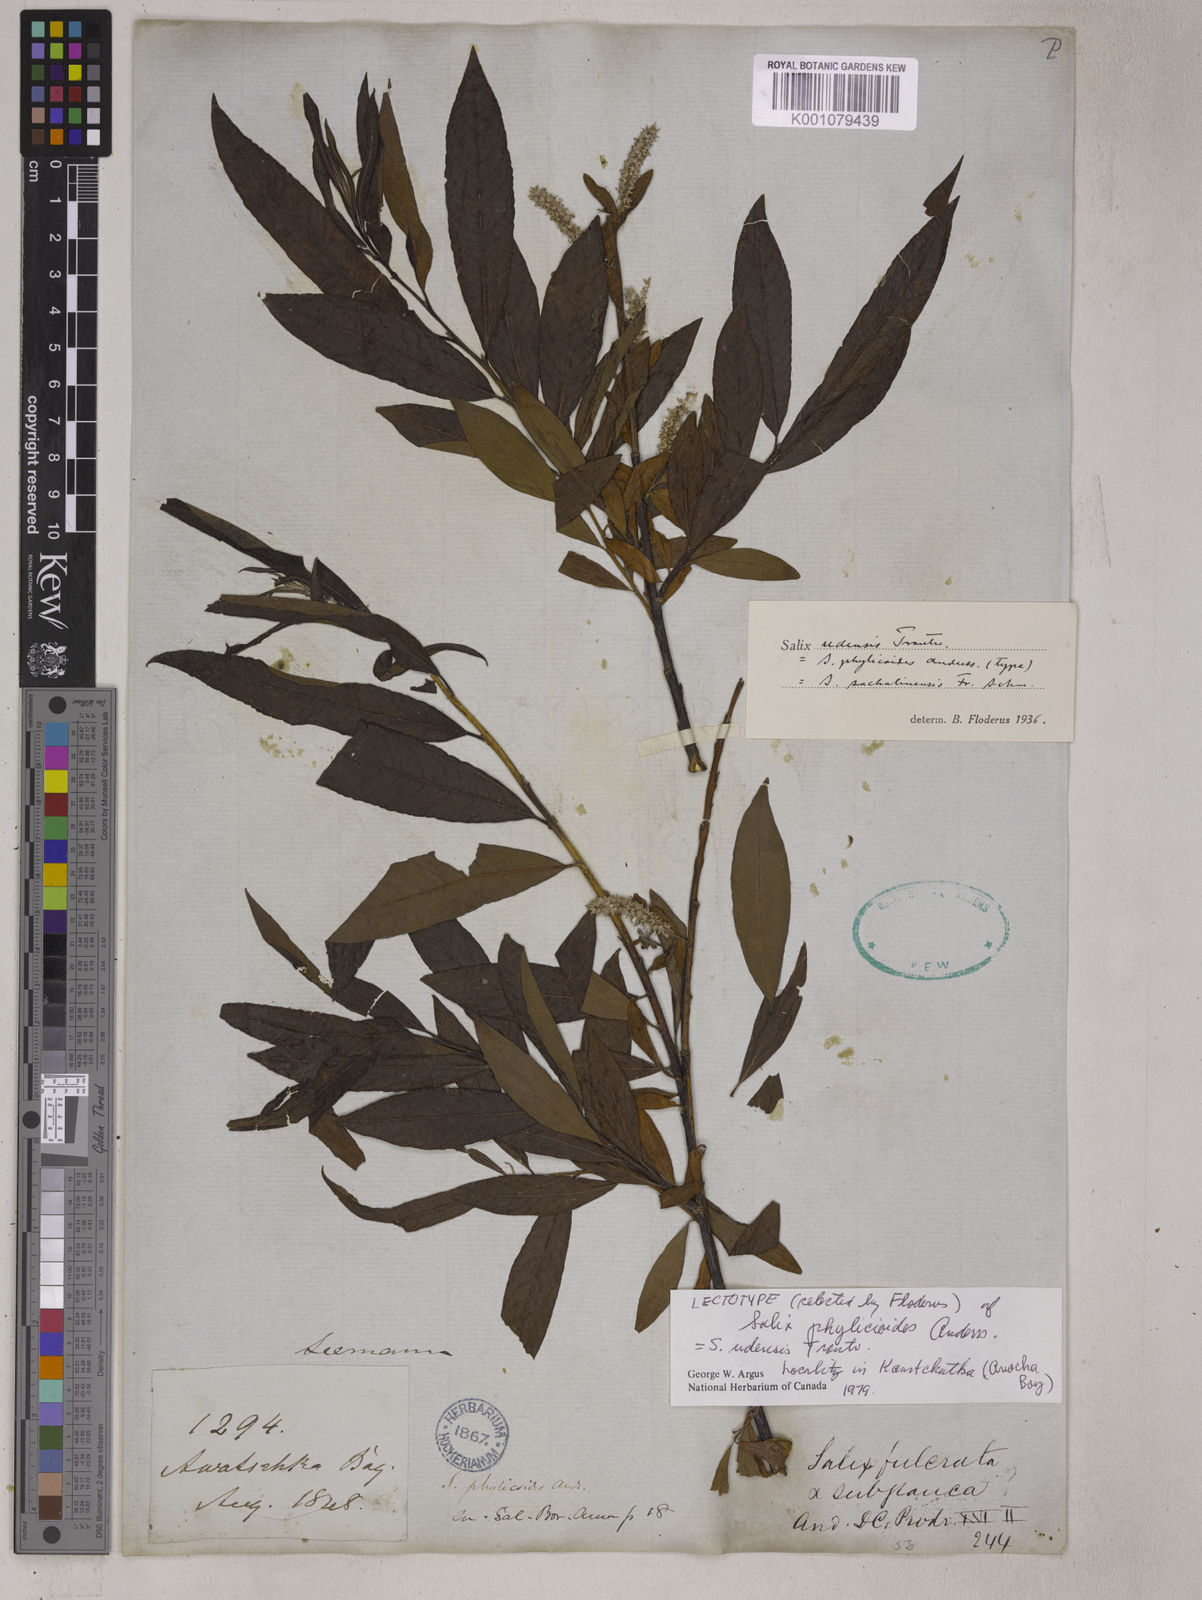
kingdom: Plantae
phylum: Tracheophyta
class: Magnoliopsida
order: Malpighiales
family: Salicaceae
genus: Salix
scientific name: Salix udensis
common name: Sachalin willow
